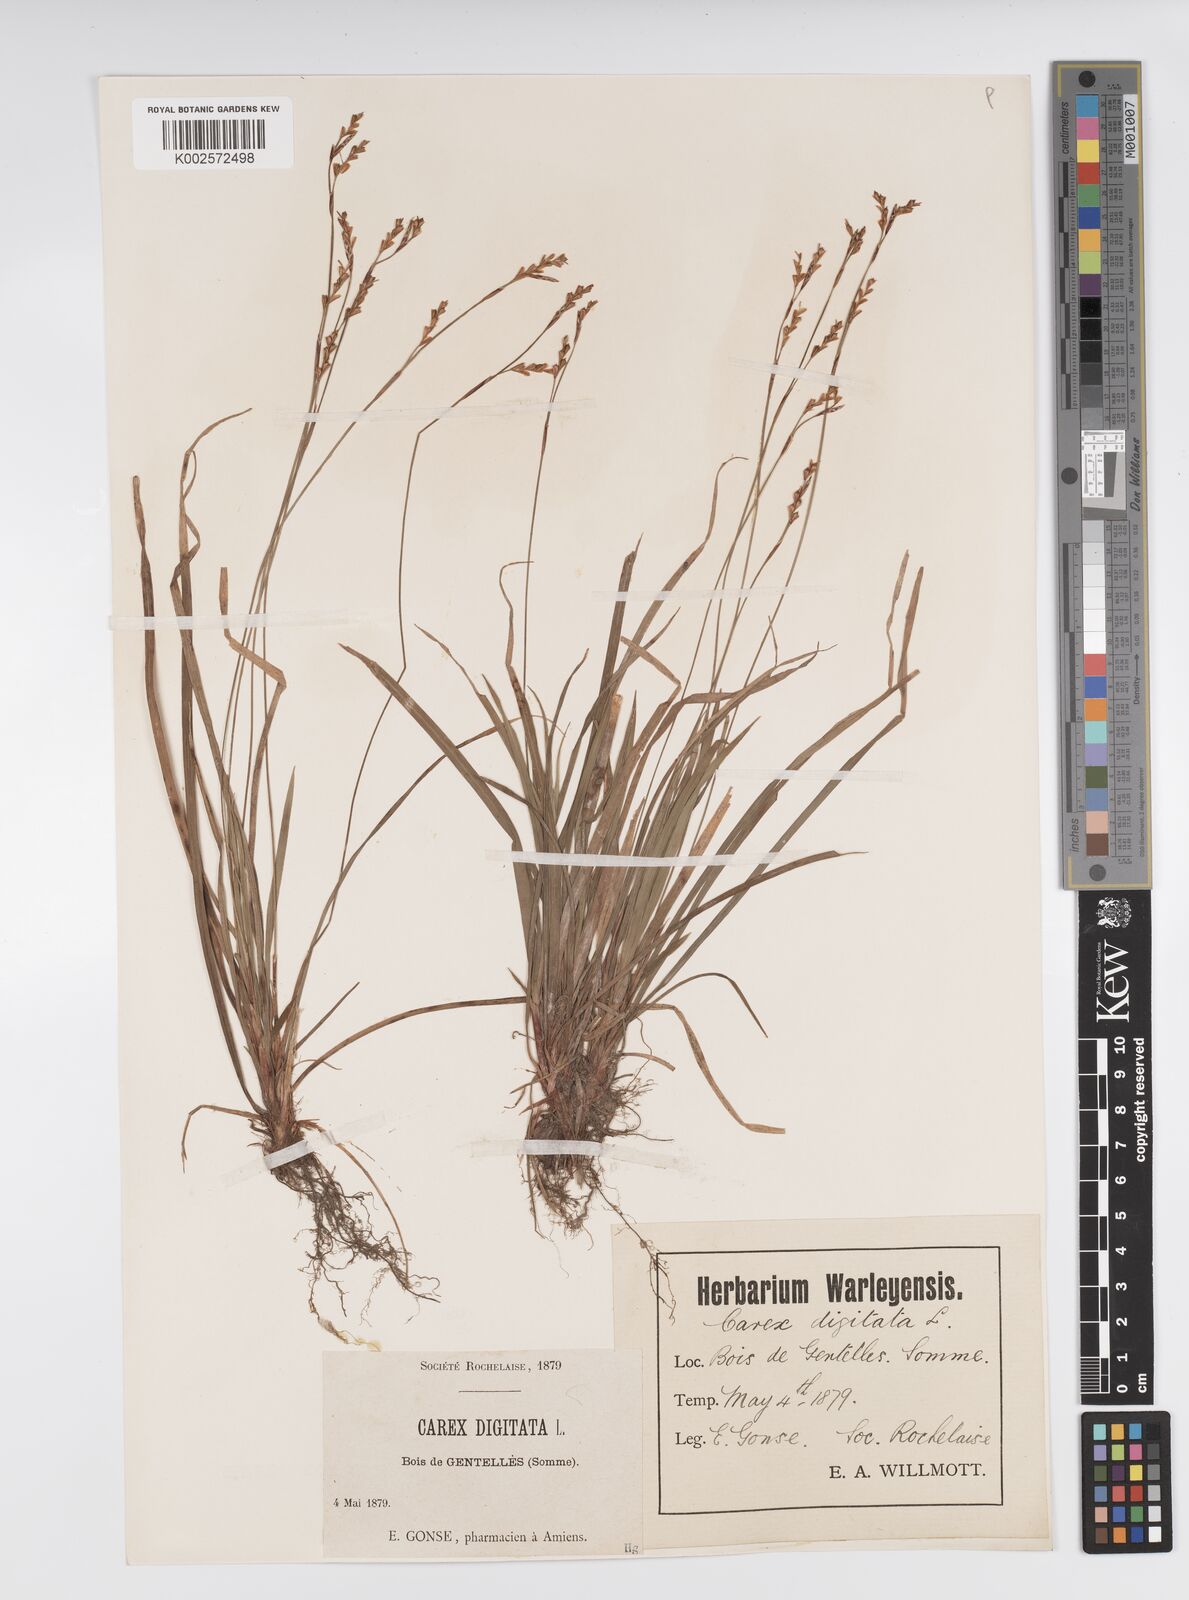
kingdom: Plantae
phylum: Tracheophyta
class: Liliopsida
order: Poales
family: Cyperaceae
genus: Carex
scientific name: Carex digitata
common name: Fingered sedge
